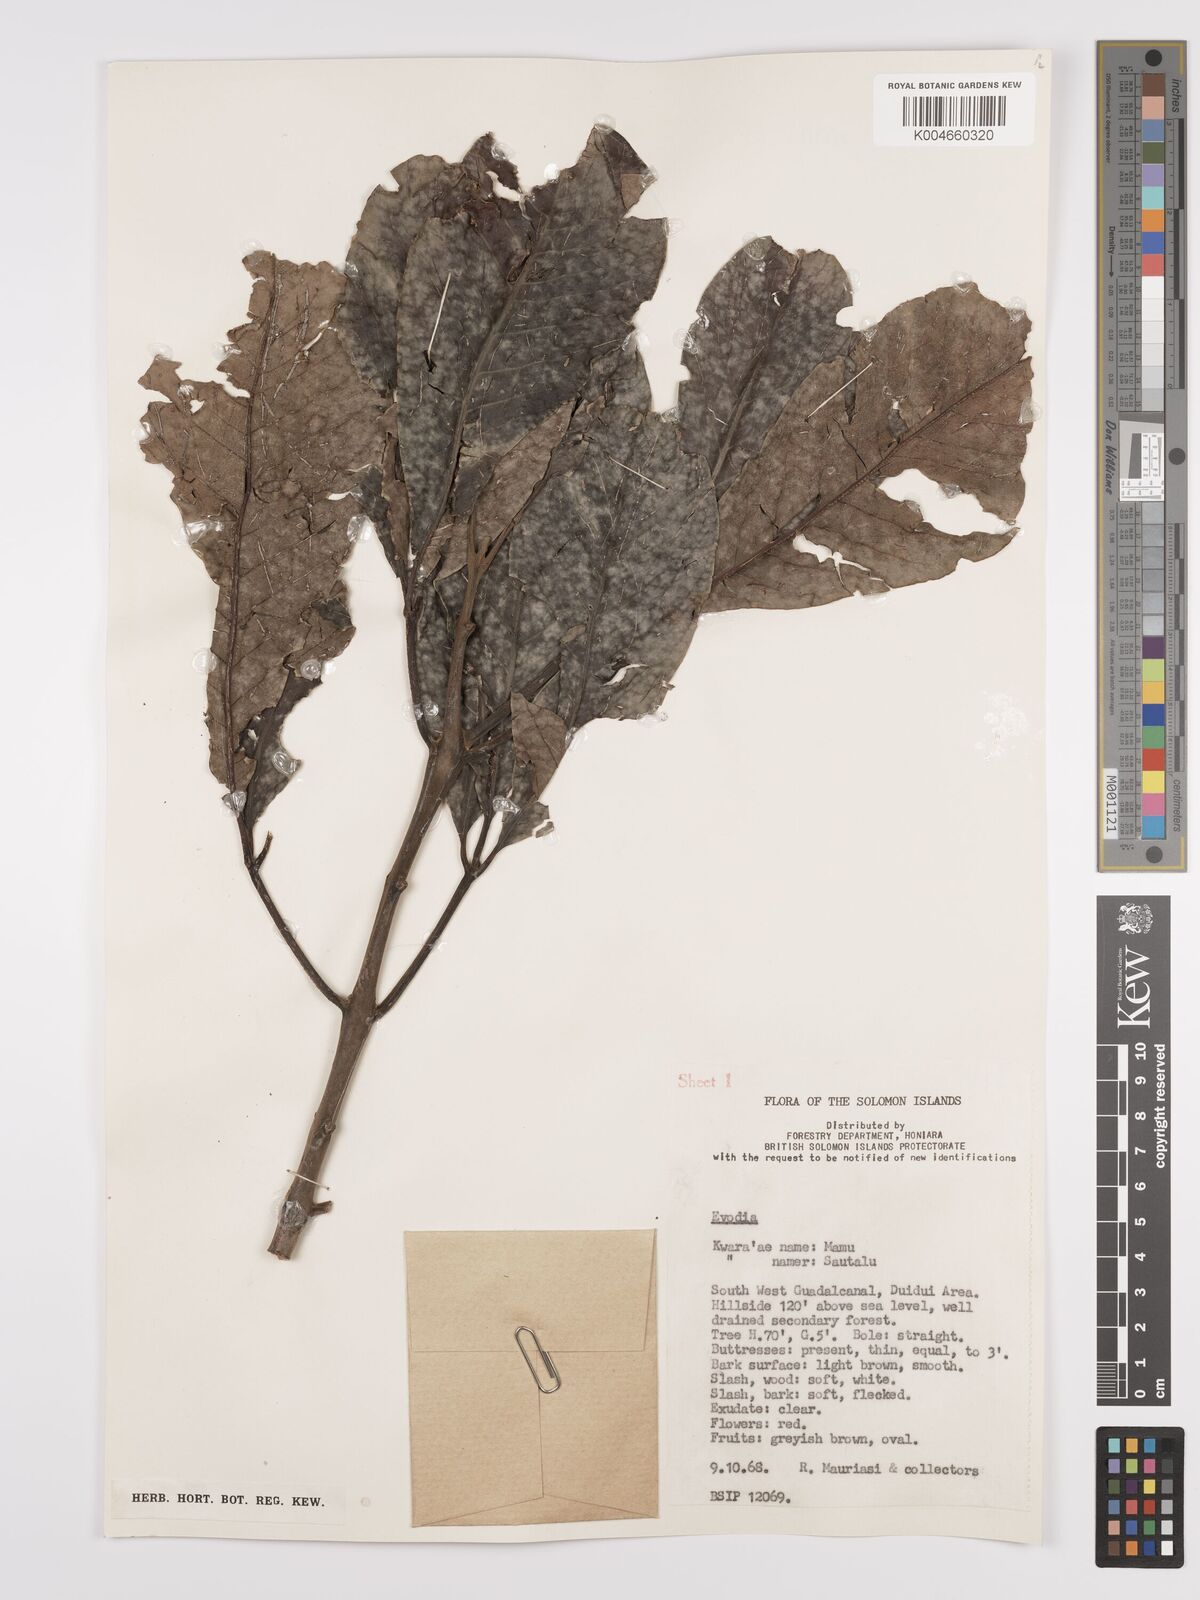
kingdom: Plantae
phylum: Tracheophyta
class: Magnoliopsida
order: Sapindales
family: Rutaceae
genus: Euodia
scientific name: Euodia
